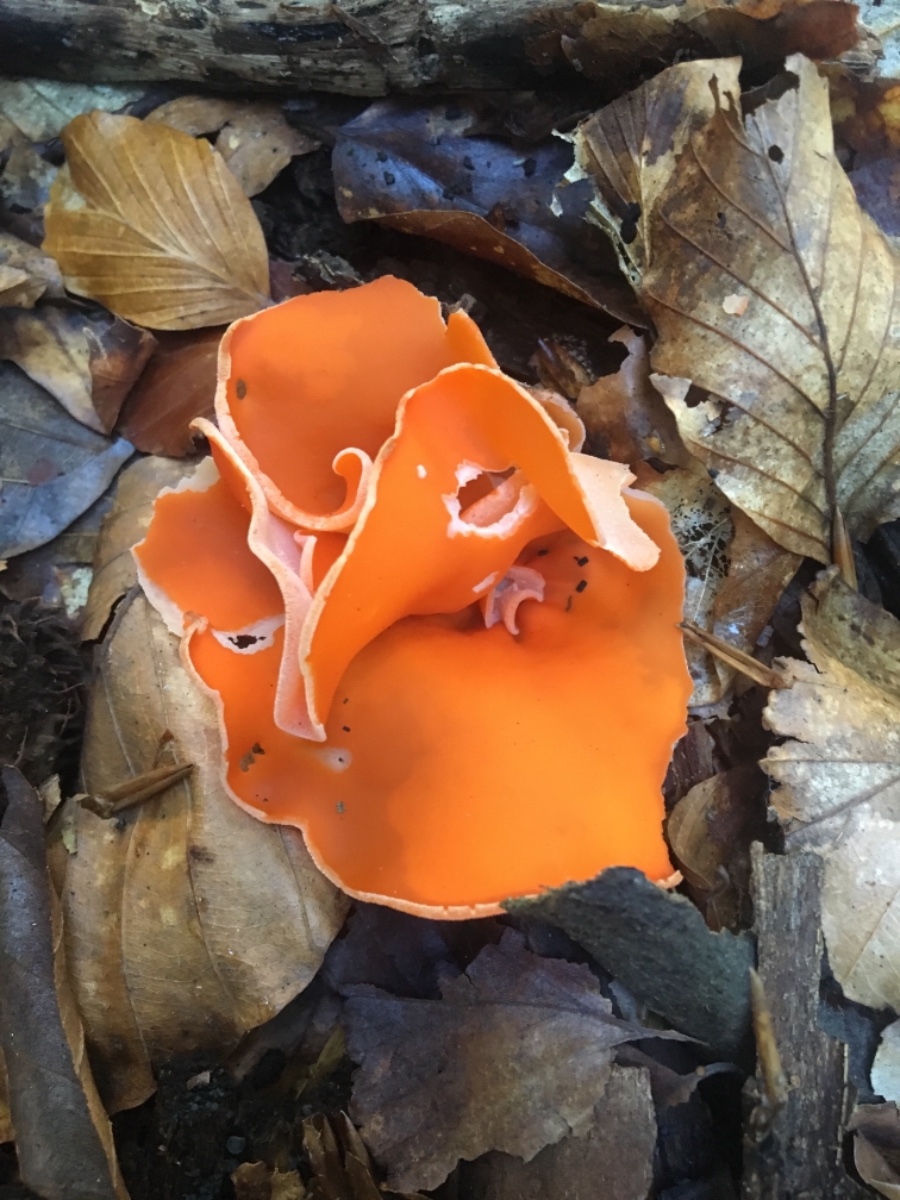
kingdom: Fungi
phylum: Ascomycota
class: Pezizomycetes
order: Pezizales
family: Pyronemataceae
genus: Aleuria
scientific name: Aleuria aurantia
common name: almindelig orangebæger
